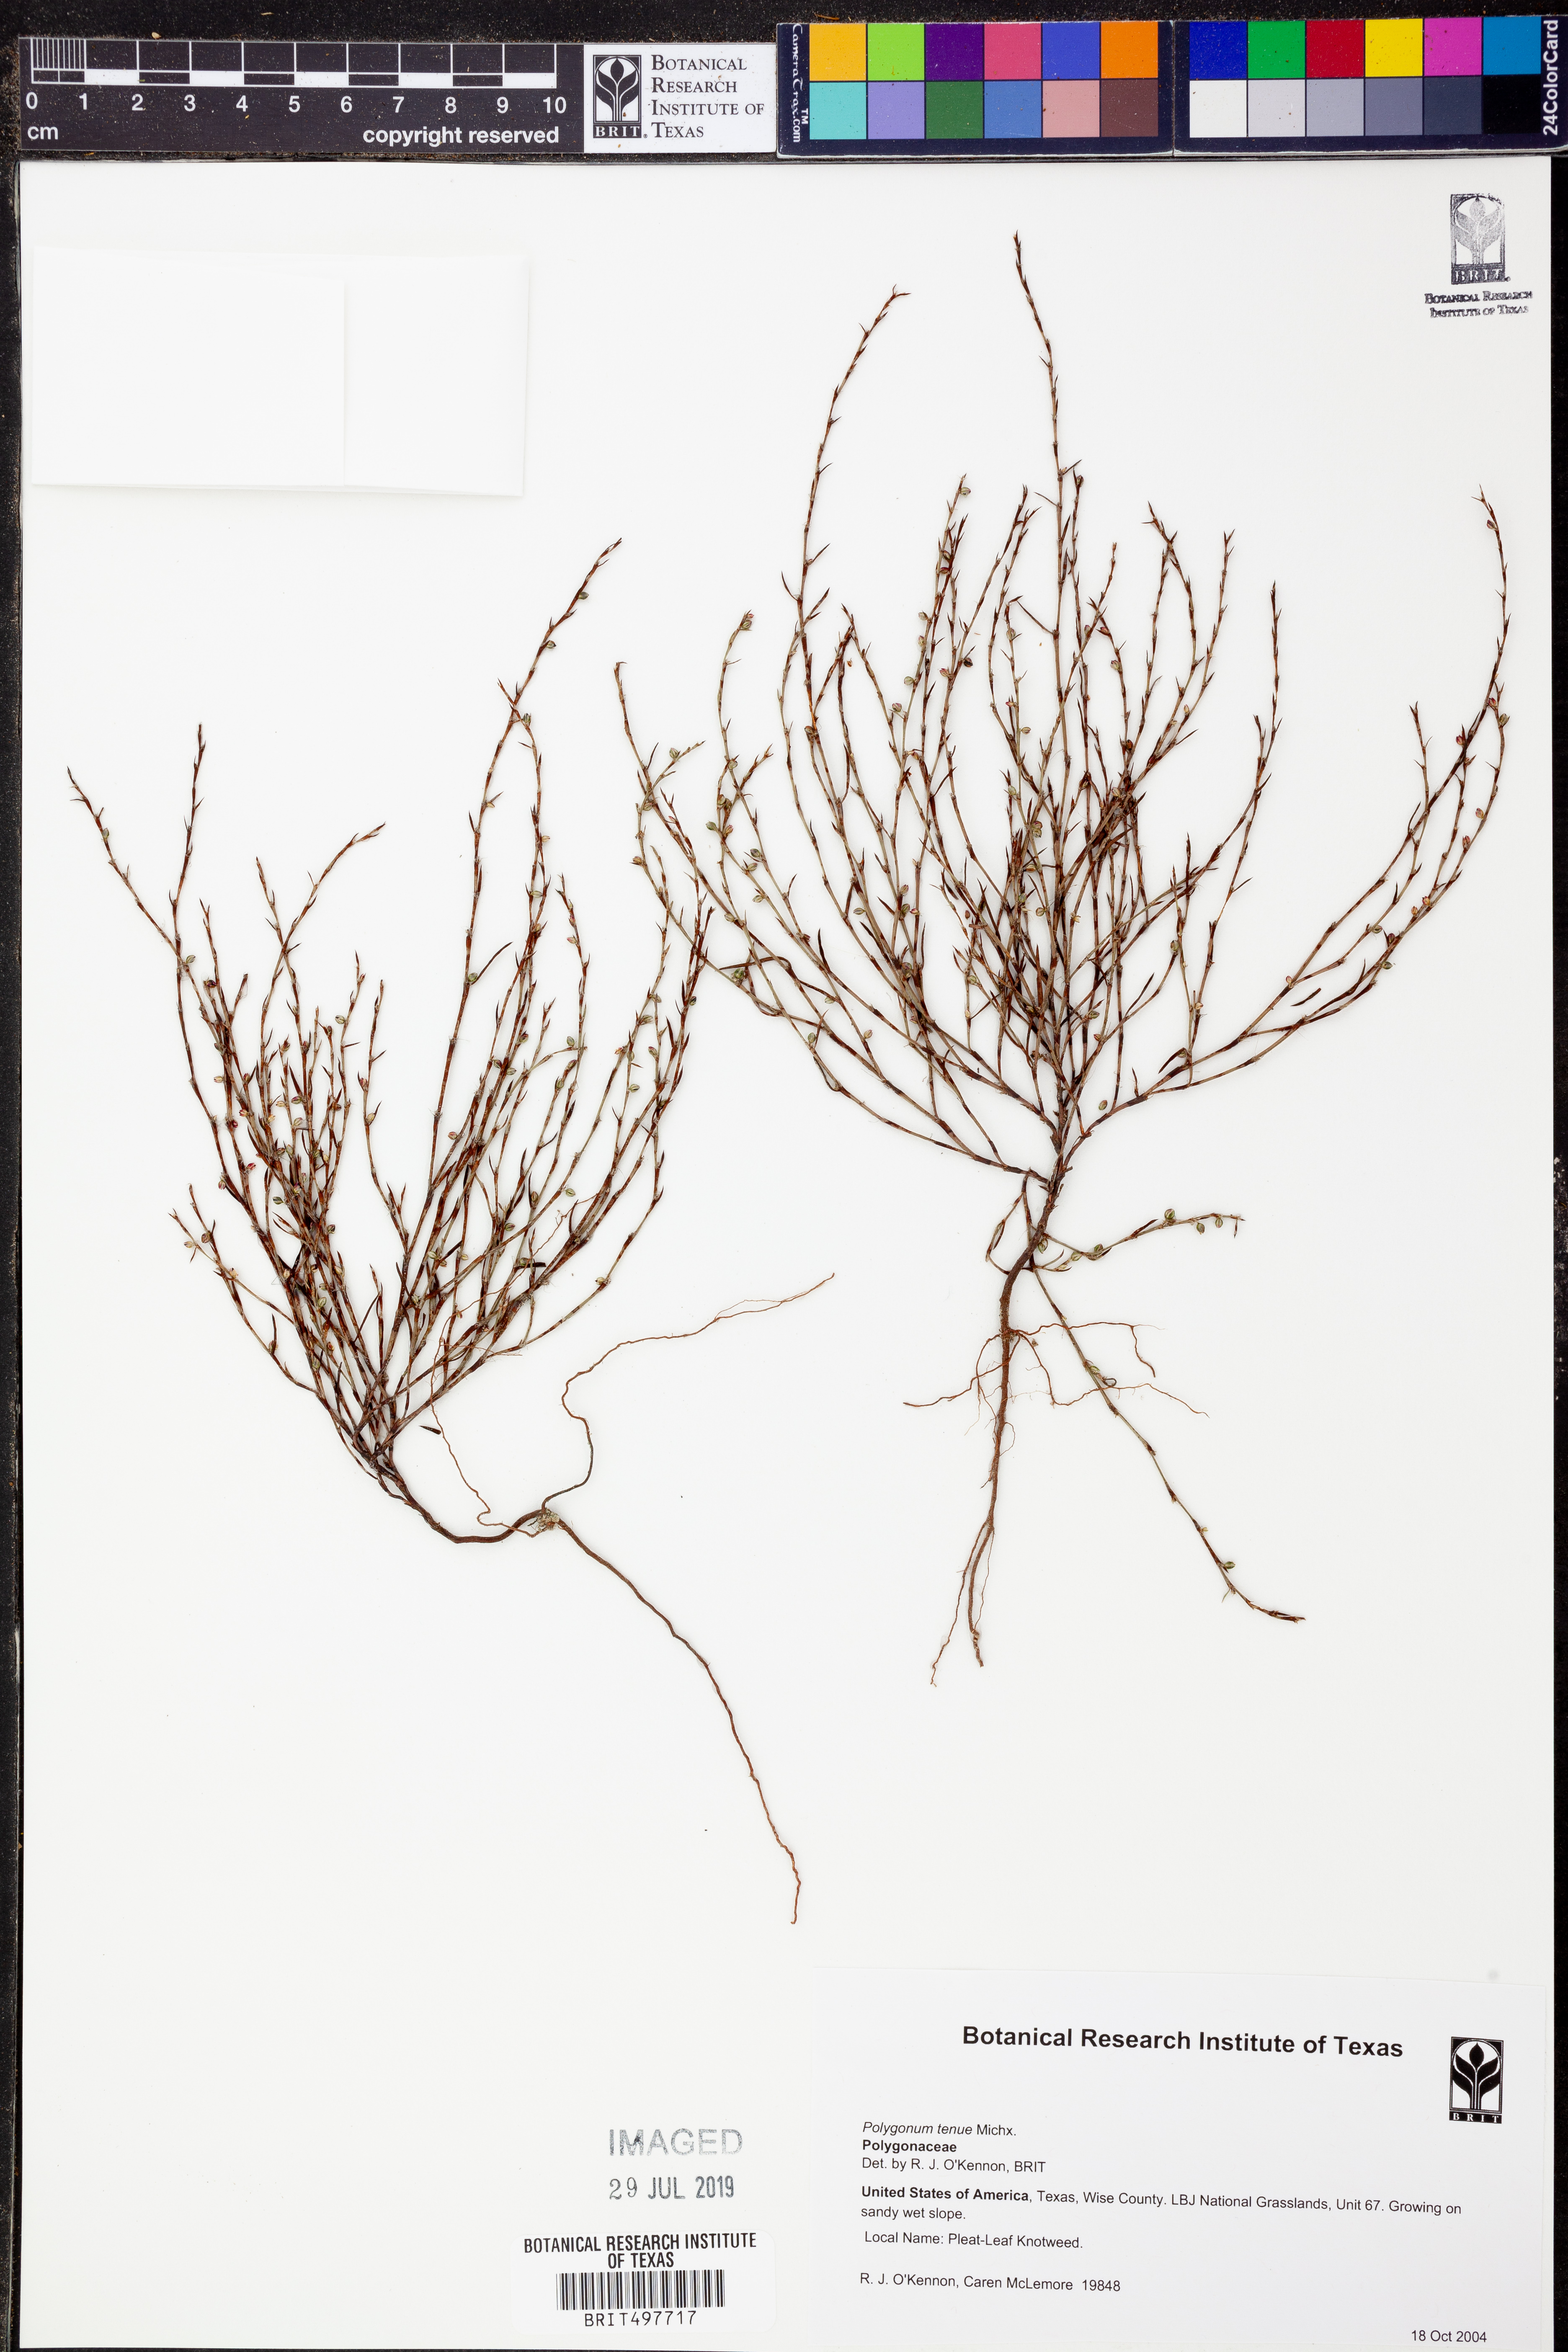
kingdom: Plantae
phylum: Tracheophyta
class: Magnoliopsida
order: Caryophyllales
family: Polygonaceae
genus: Polygonum
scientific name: Polygonum tenue
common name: Pleat-leaved knotweed
